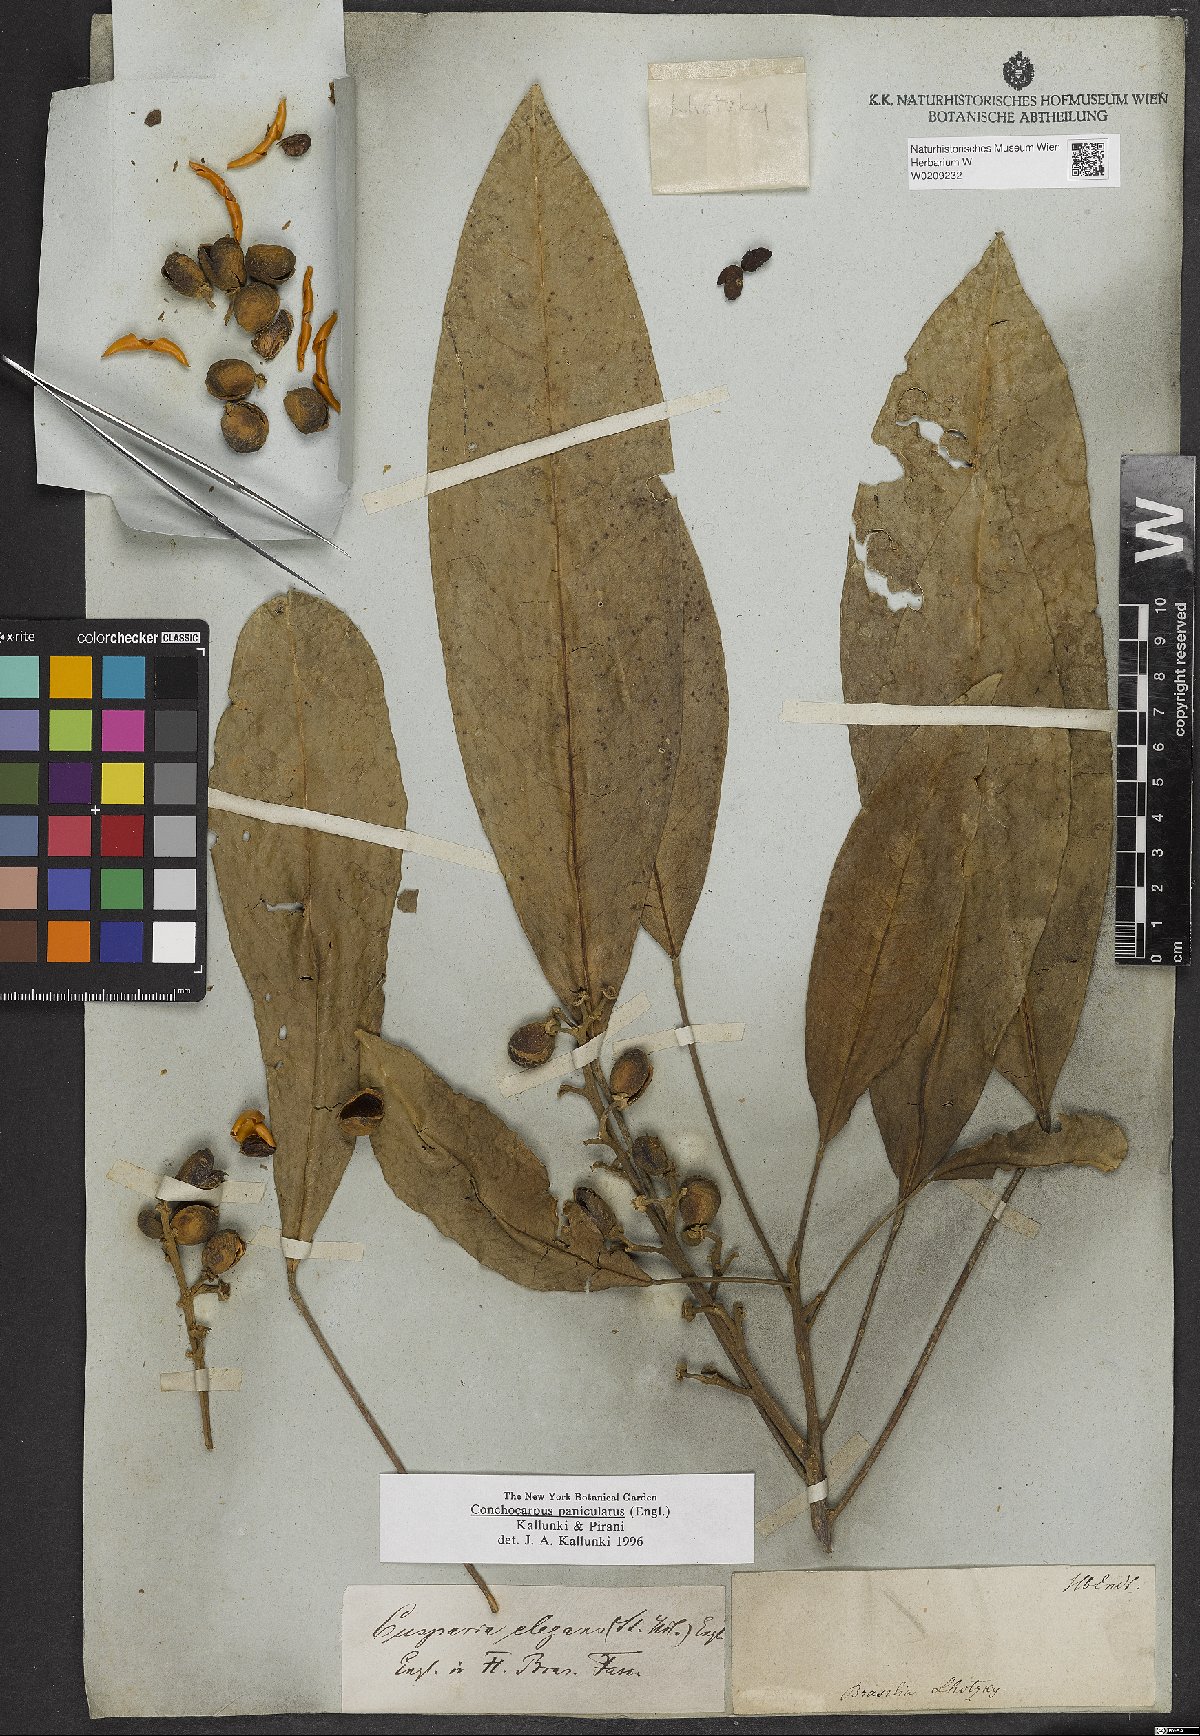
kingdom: Plantae
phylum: Tracheophyta
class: Magnoliopsida
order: Sapindales
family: Rutaceae
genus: Conchocarpus
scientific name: Conchocarpus macrophyllus
